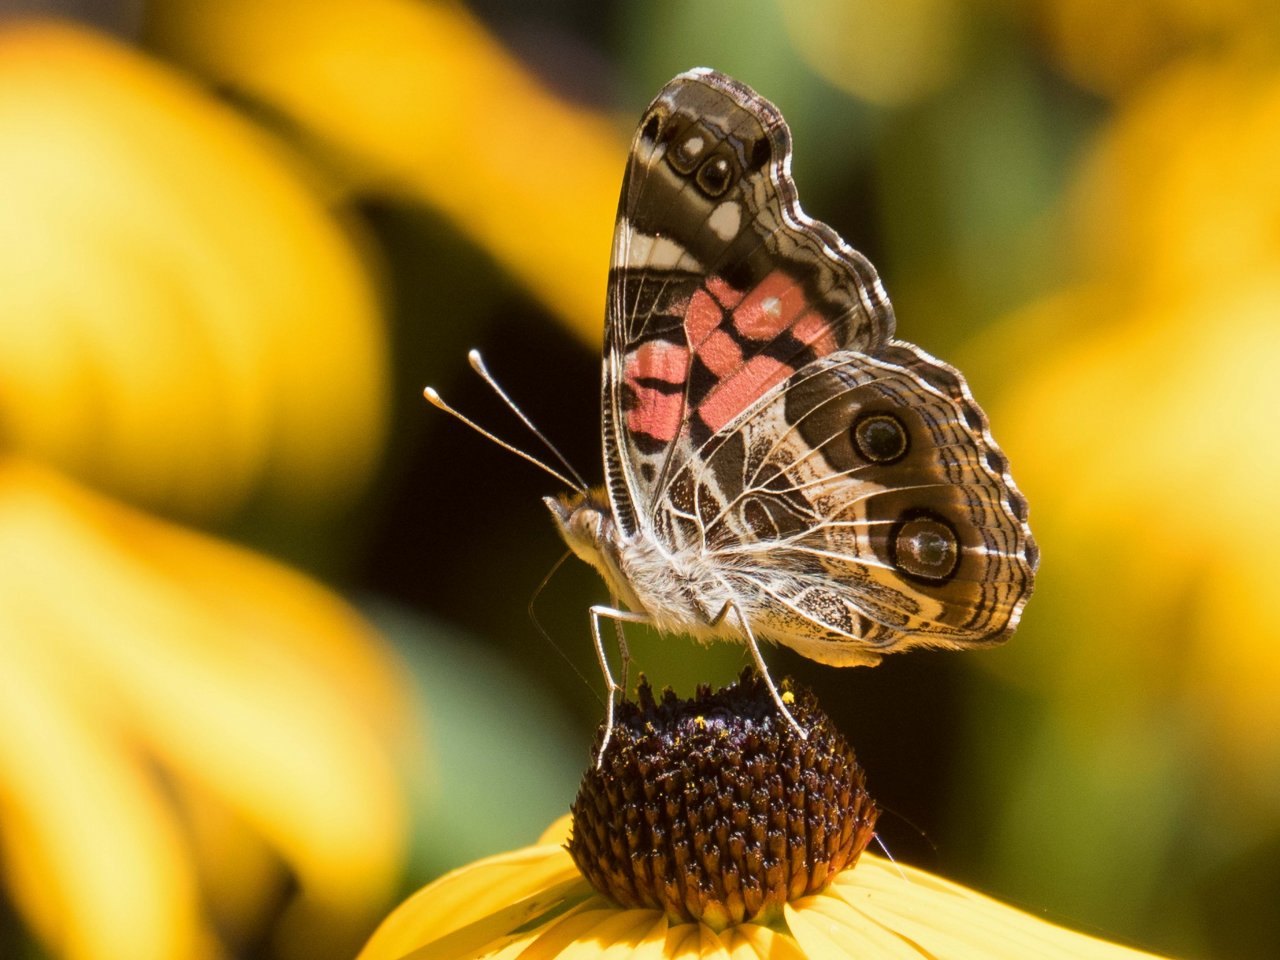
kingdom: Animalia
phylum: Arthropoda
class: Insecta
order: Lepidoptera
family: Nymphalidae
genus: Vanessa
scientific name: Vanessa virginiensis
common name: American Lady
